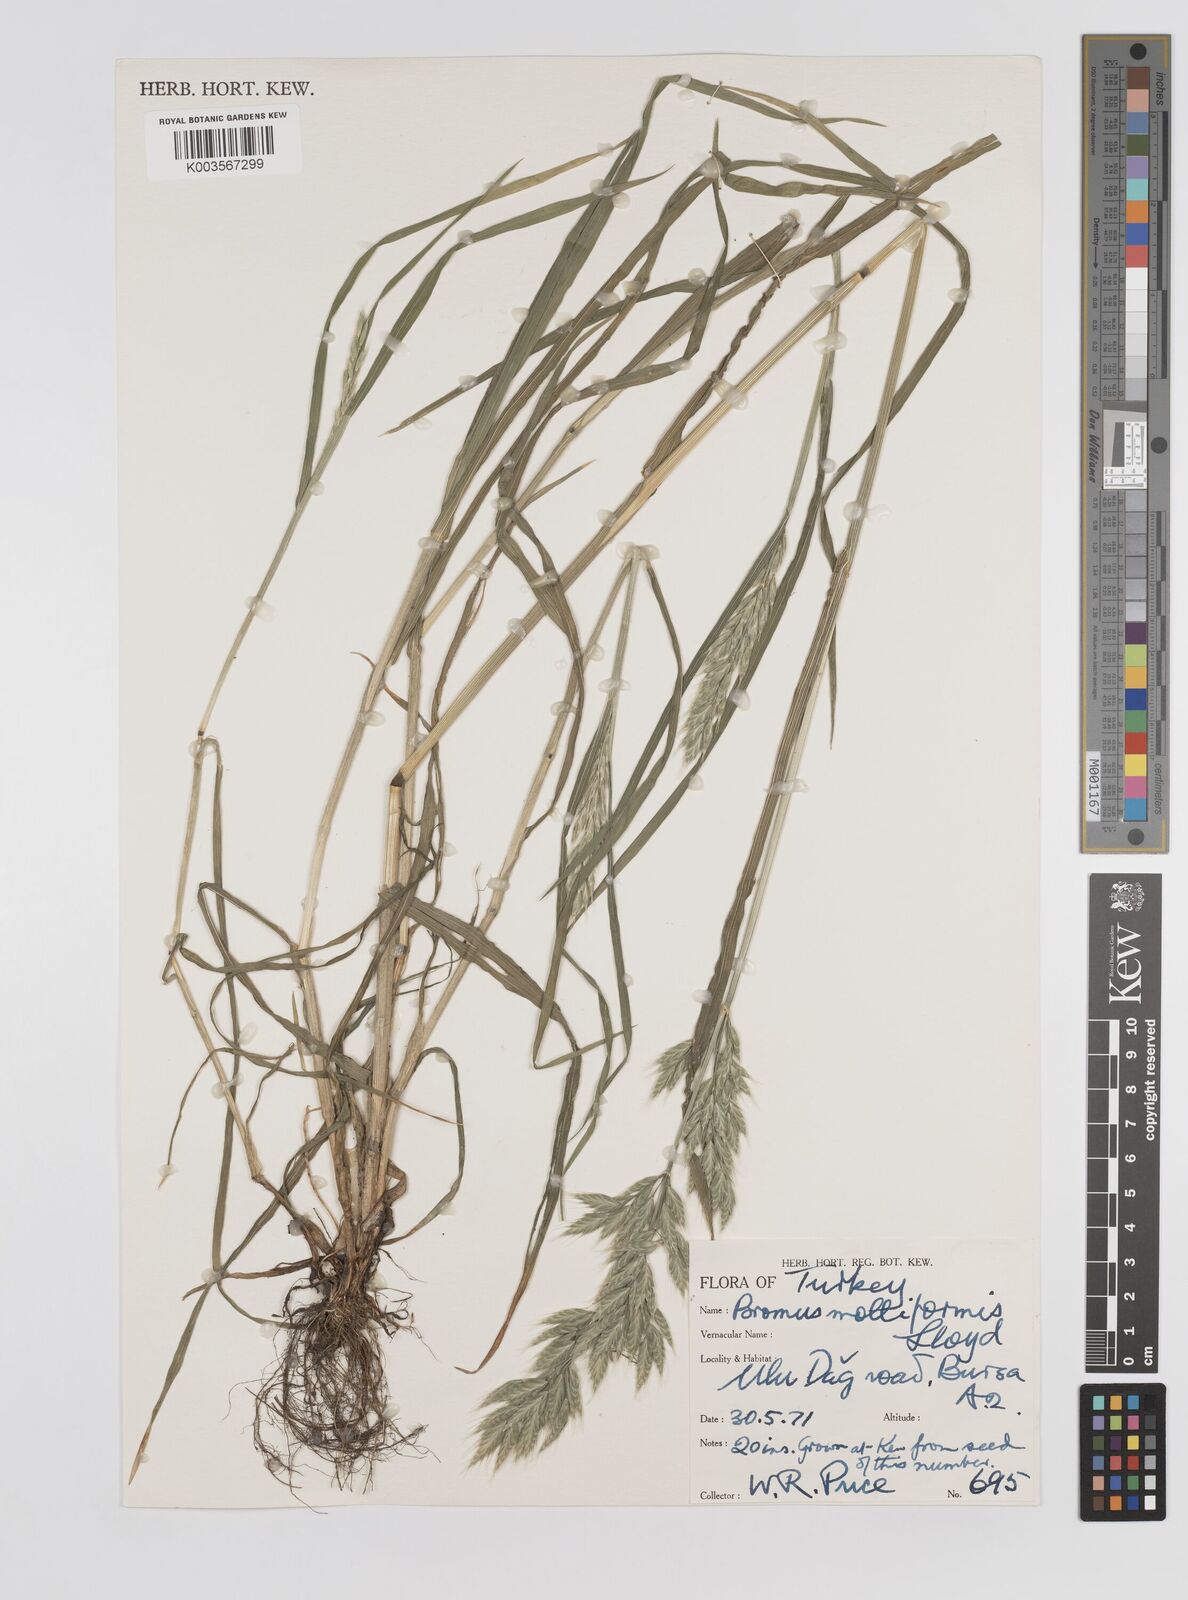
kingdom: Plantae
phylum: Tracheophyta
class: Liliopsida
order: Poales
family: Poaceae
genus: Bromus
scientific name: Bromus hordeaceus
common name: Soft brome
